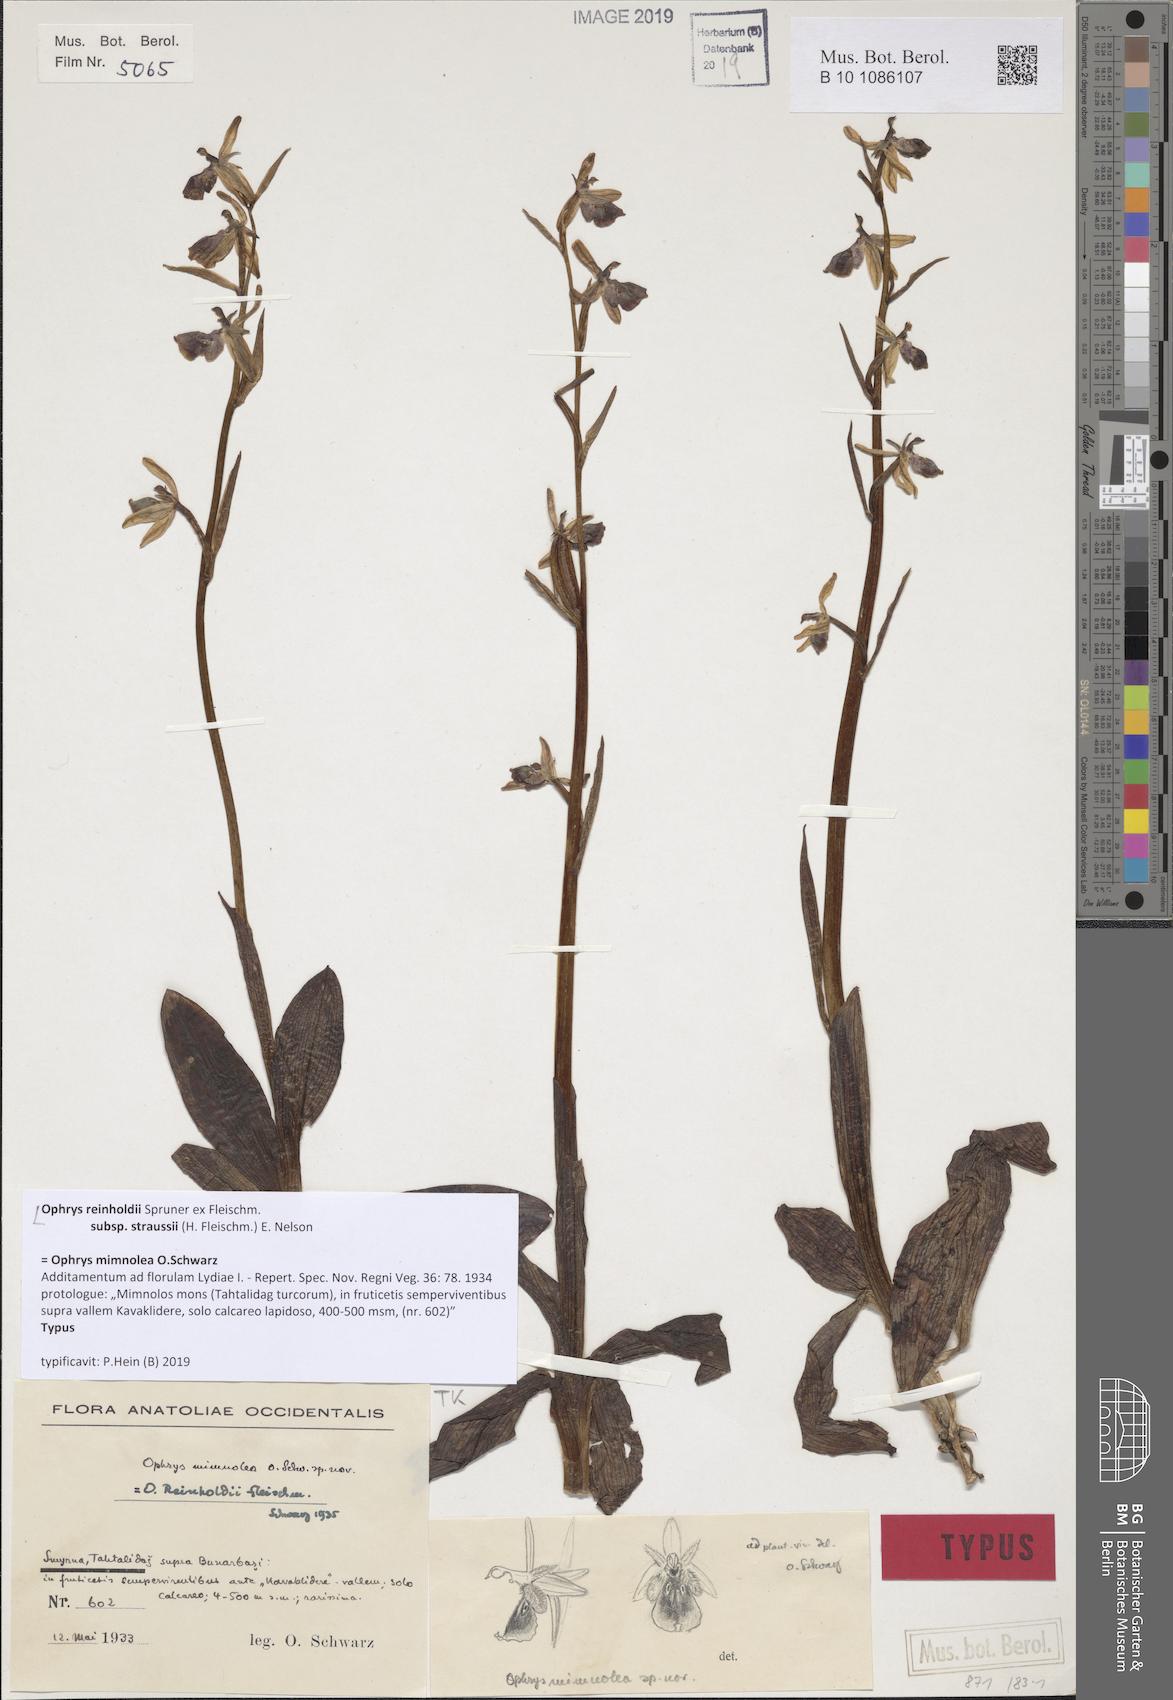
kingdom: Plantae
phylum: Tracheophyta
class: Liliopsida
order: Asparagales
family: Orchidaceae
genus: Ophrys
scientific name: Ophrys reinholdii
